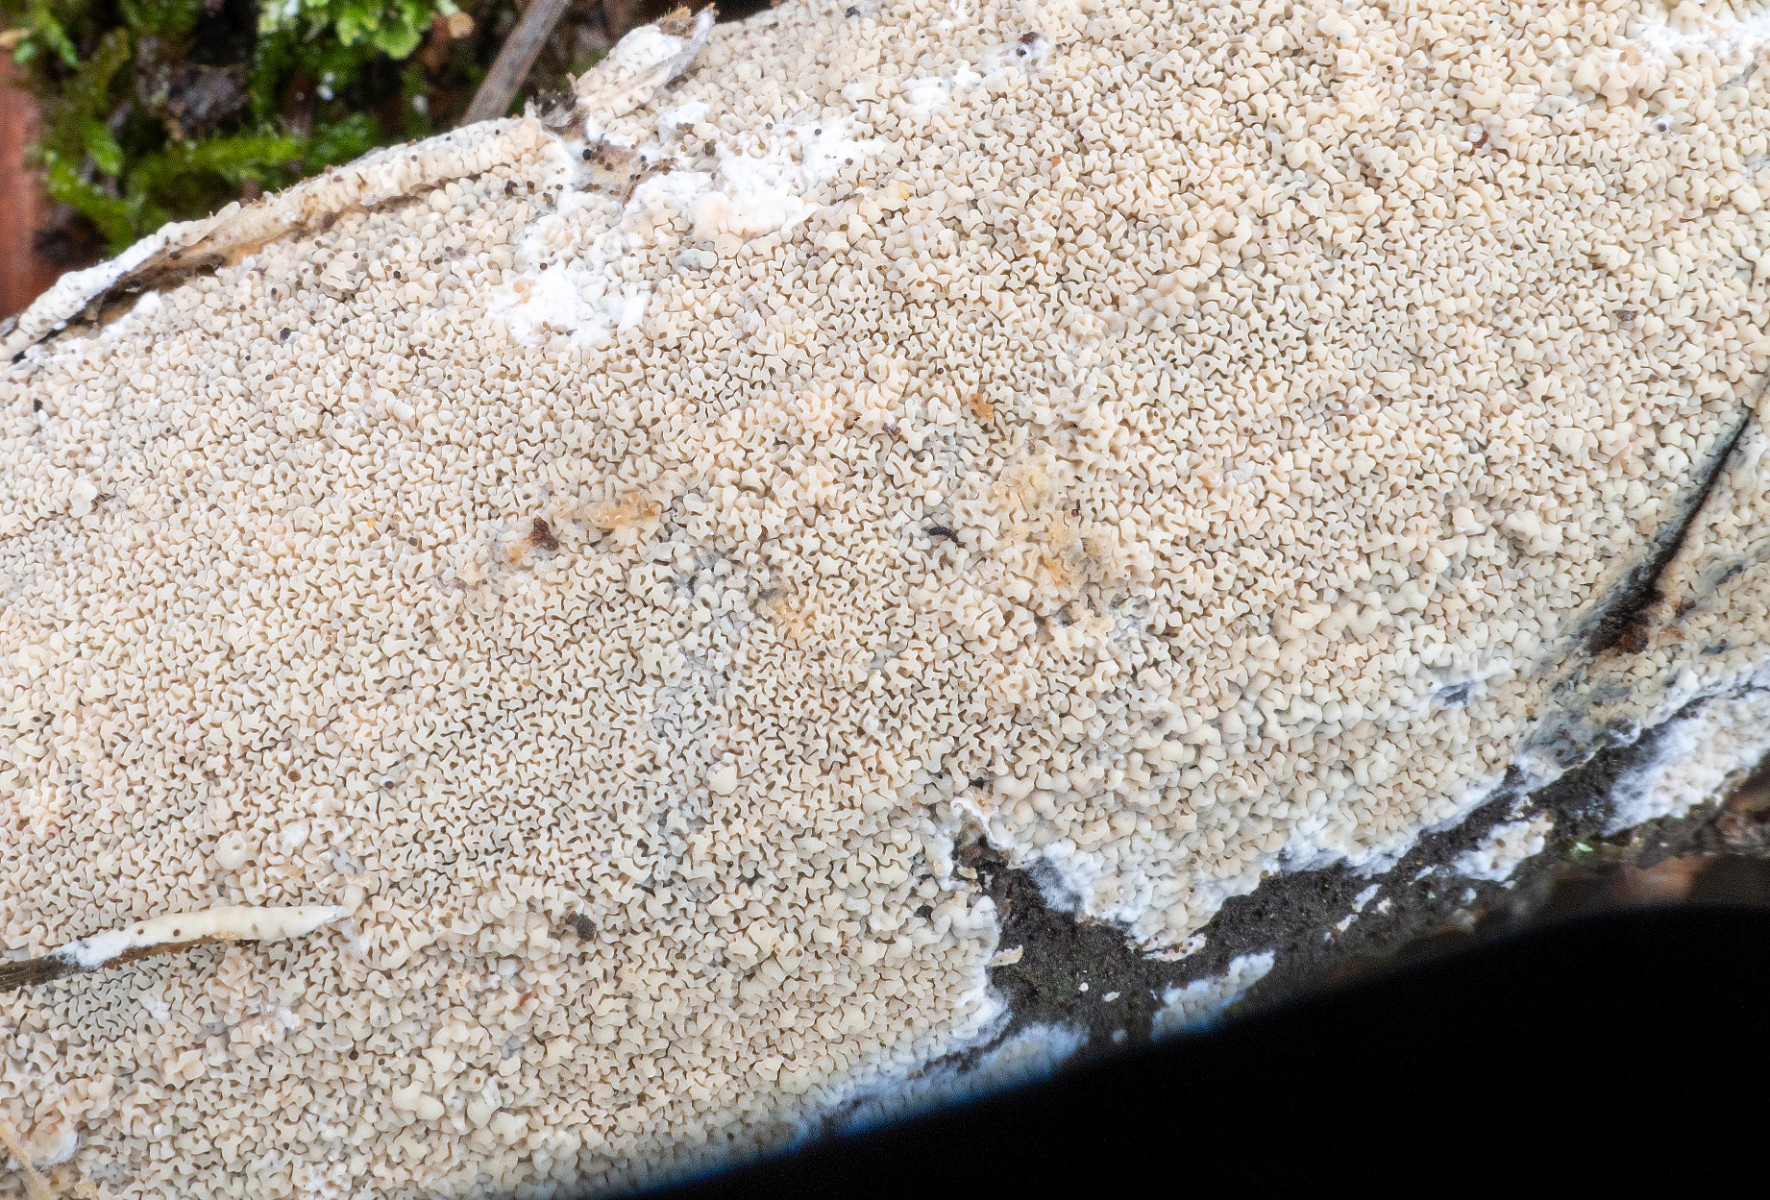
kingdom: Fungi
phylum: Basidiomycota
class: Agaricomycetes
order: Polyporales
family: Irpicaceae
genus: Crystallicutis
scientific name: Crystallicutis serpens
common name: gråviolet barkhinde
